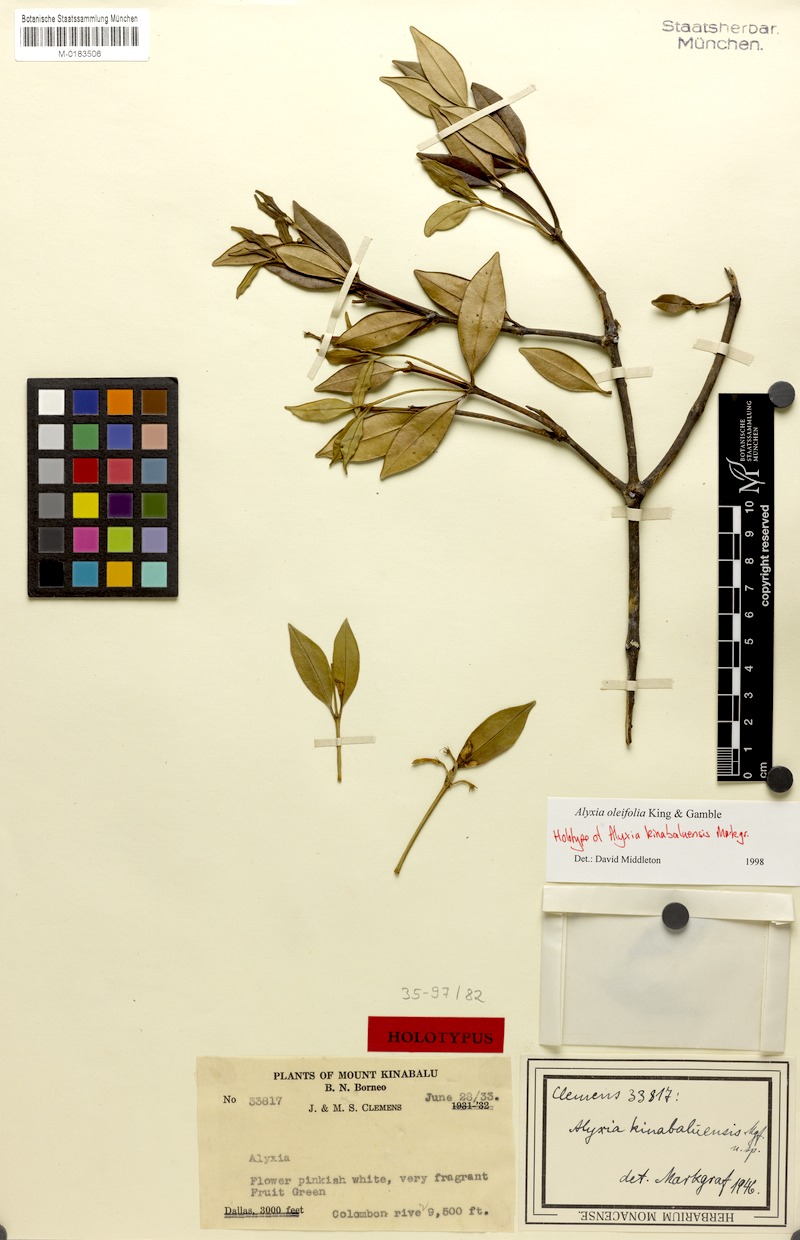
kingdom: Plantae
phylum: Tracheophyta
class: Magnoliopsida
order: Gentianales
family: Apocynaceae
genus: Alyxia
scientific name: Alyxia oleifolia
